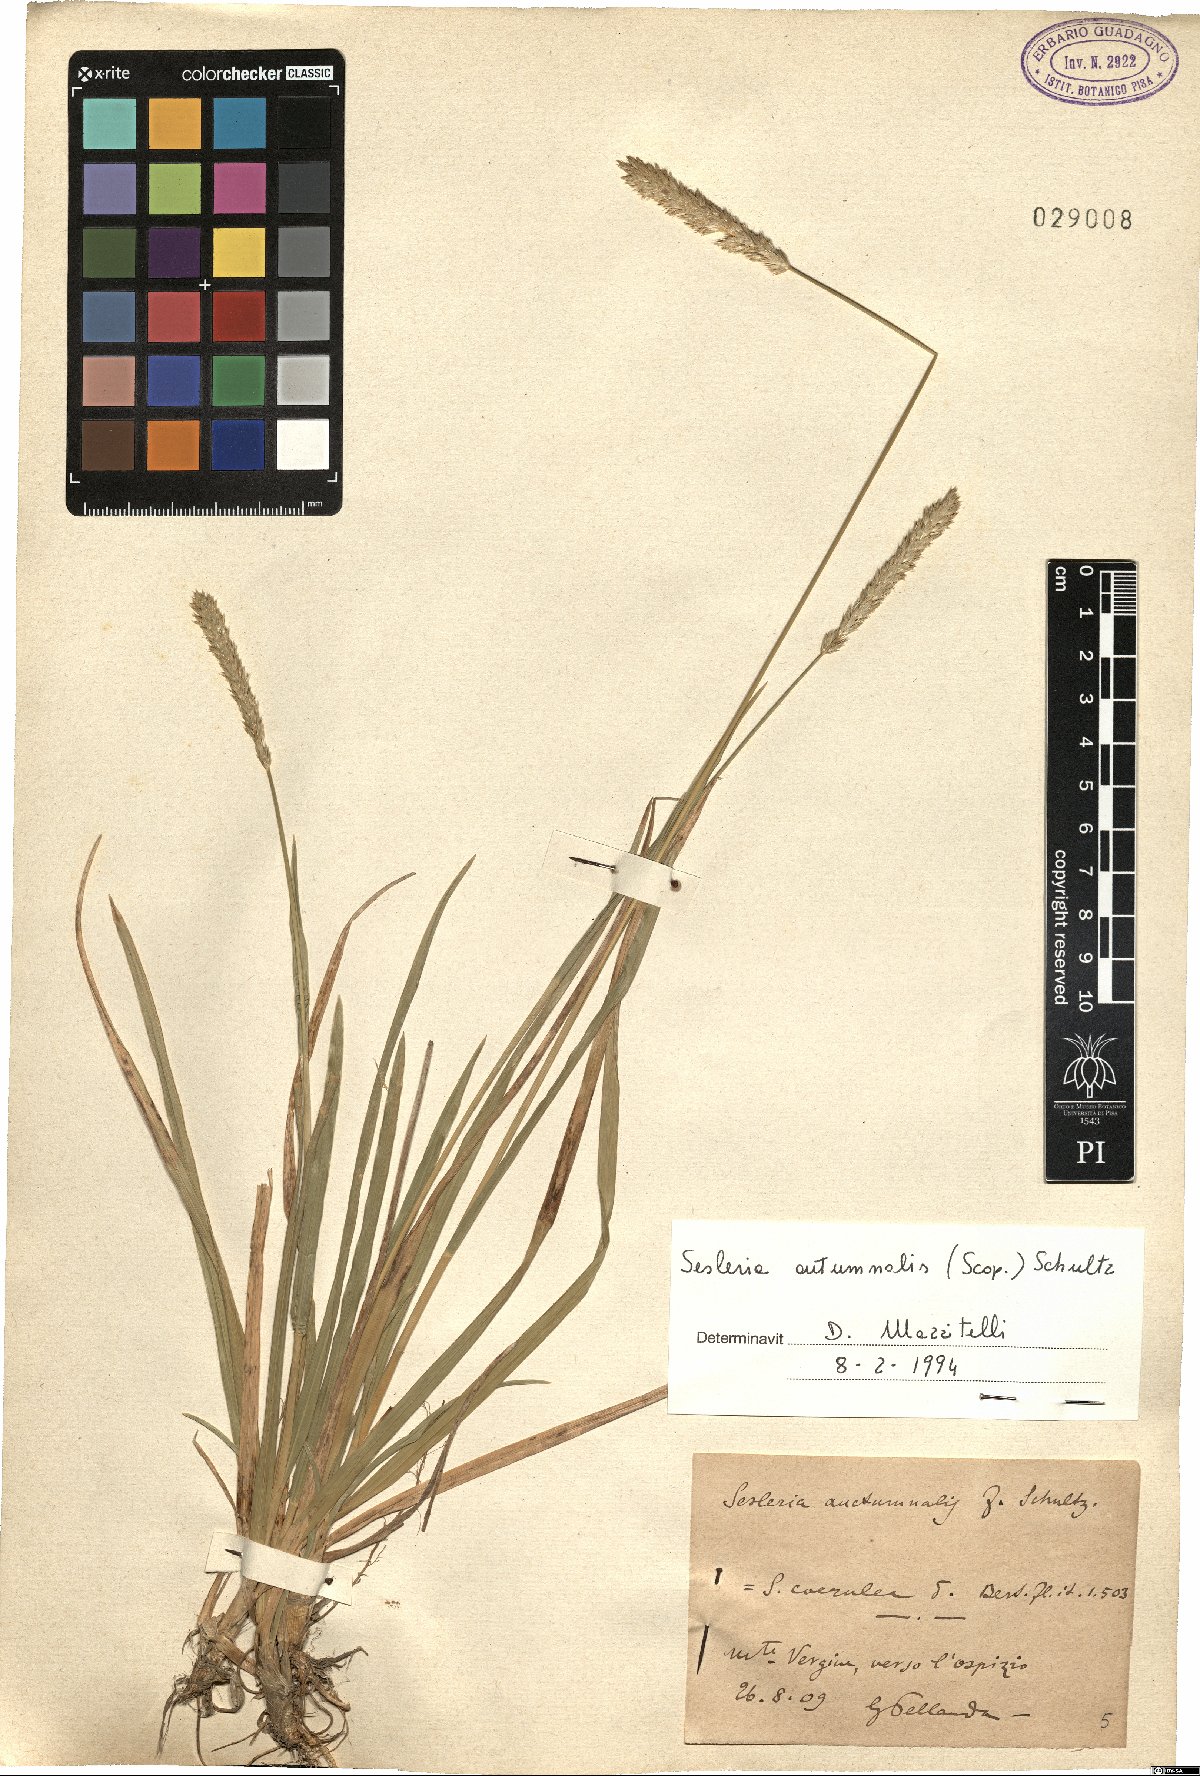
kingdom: Plantae
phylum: Tracheophyta
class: Liliopsida
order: Poales
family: Poaceae
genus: Sesleria
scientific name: Sesleria autumnalis
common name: Autumn moor grass
